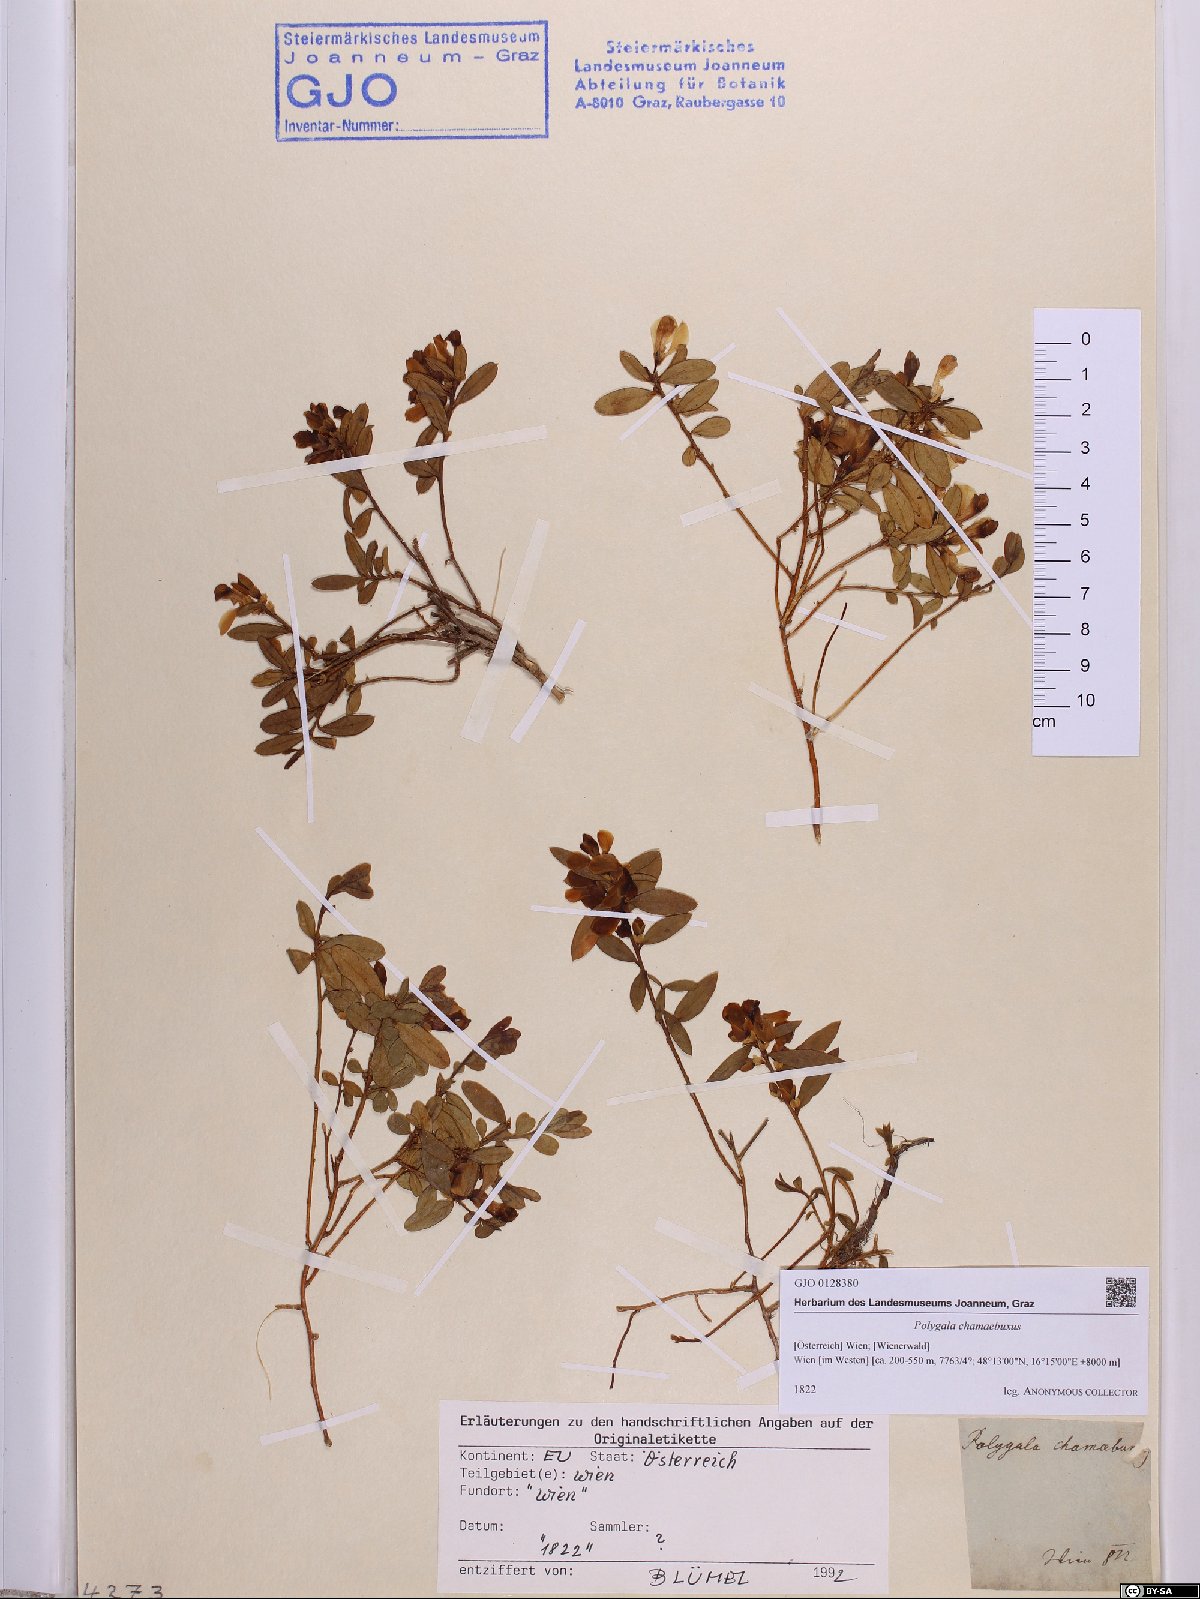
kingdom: Plantae
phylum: Tracheophyta
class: Magnoliopsida
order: Fabales
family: Polygalaceae
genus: Polygaloides
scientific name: Polygaloides chamaebuxus
